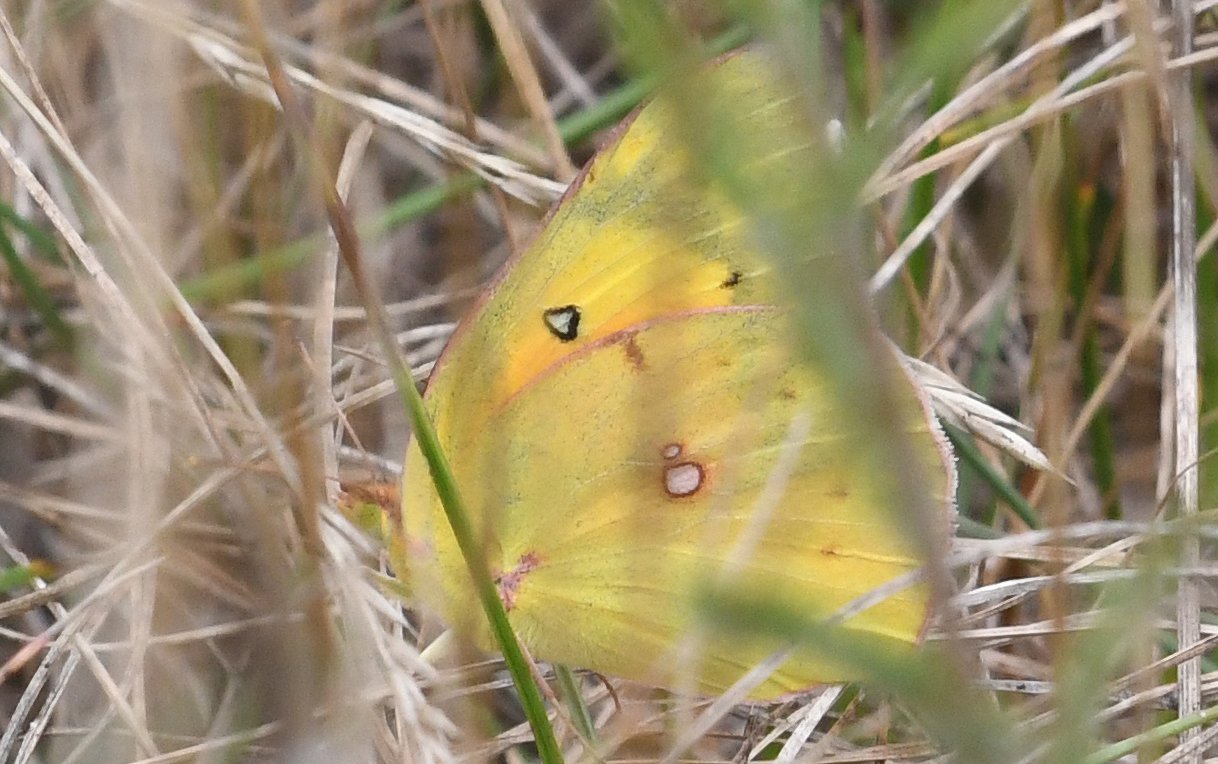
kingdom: Animalia
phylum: Arthropoda
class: Insecta
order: Lepidoptera
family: Pieridae
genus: Colias
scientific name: Colias eurytheme
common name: Orange Sulphur
